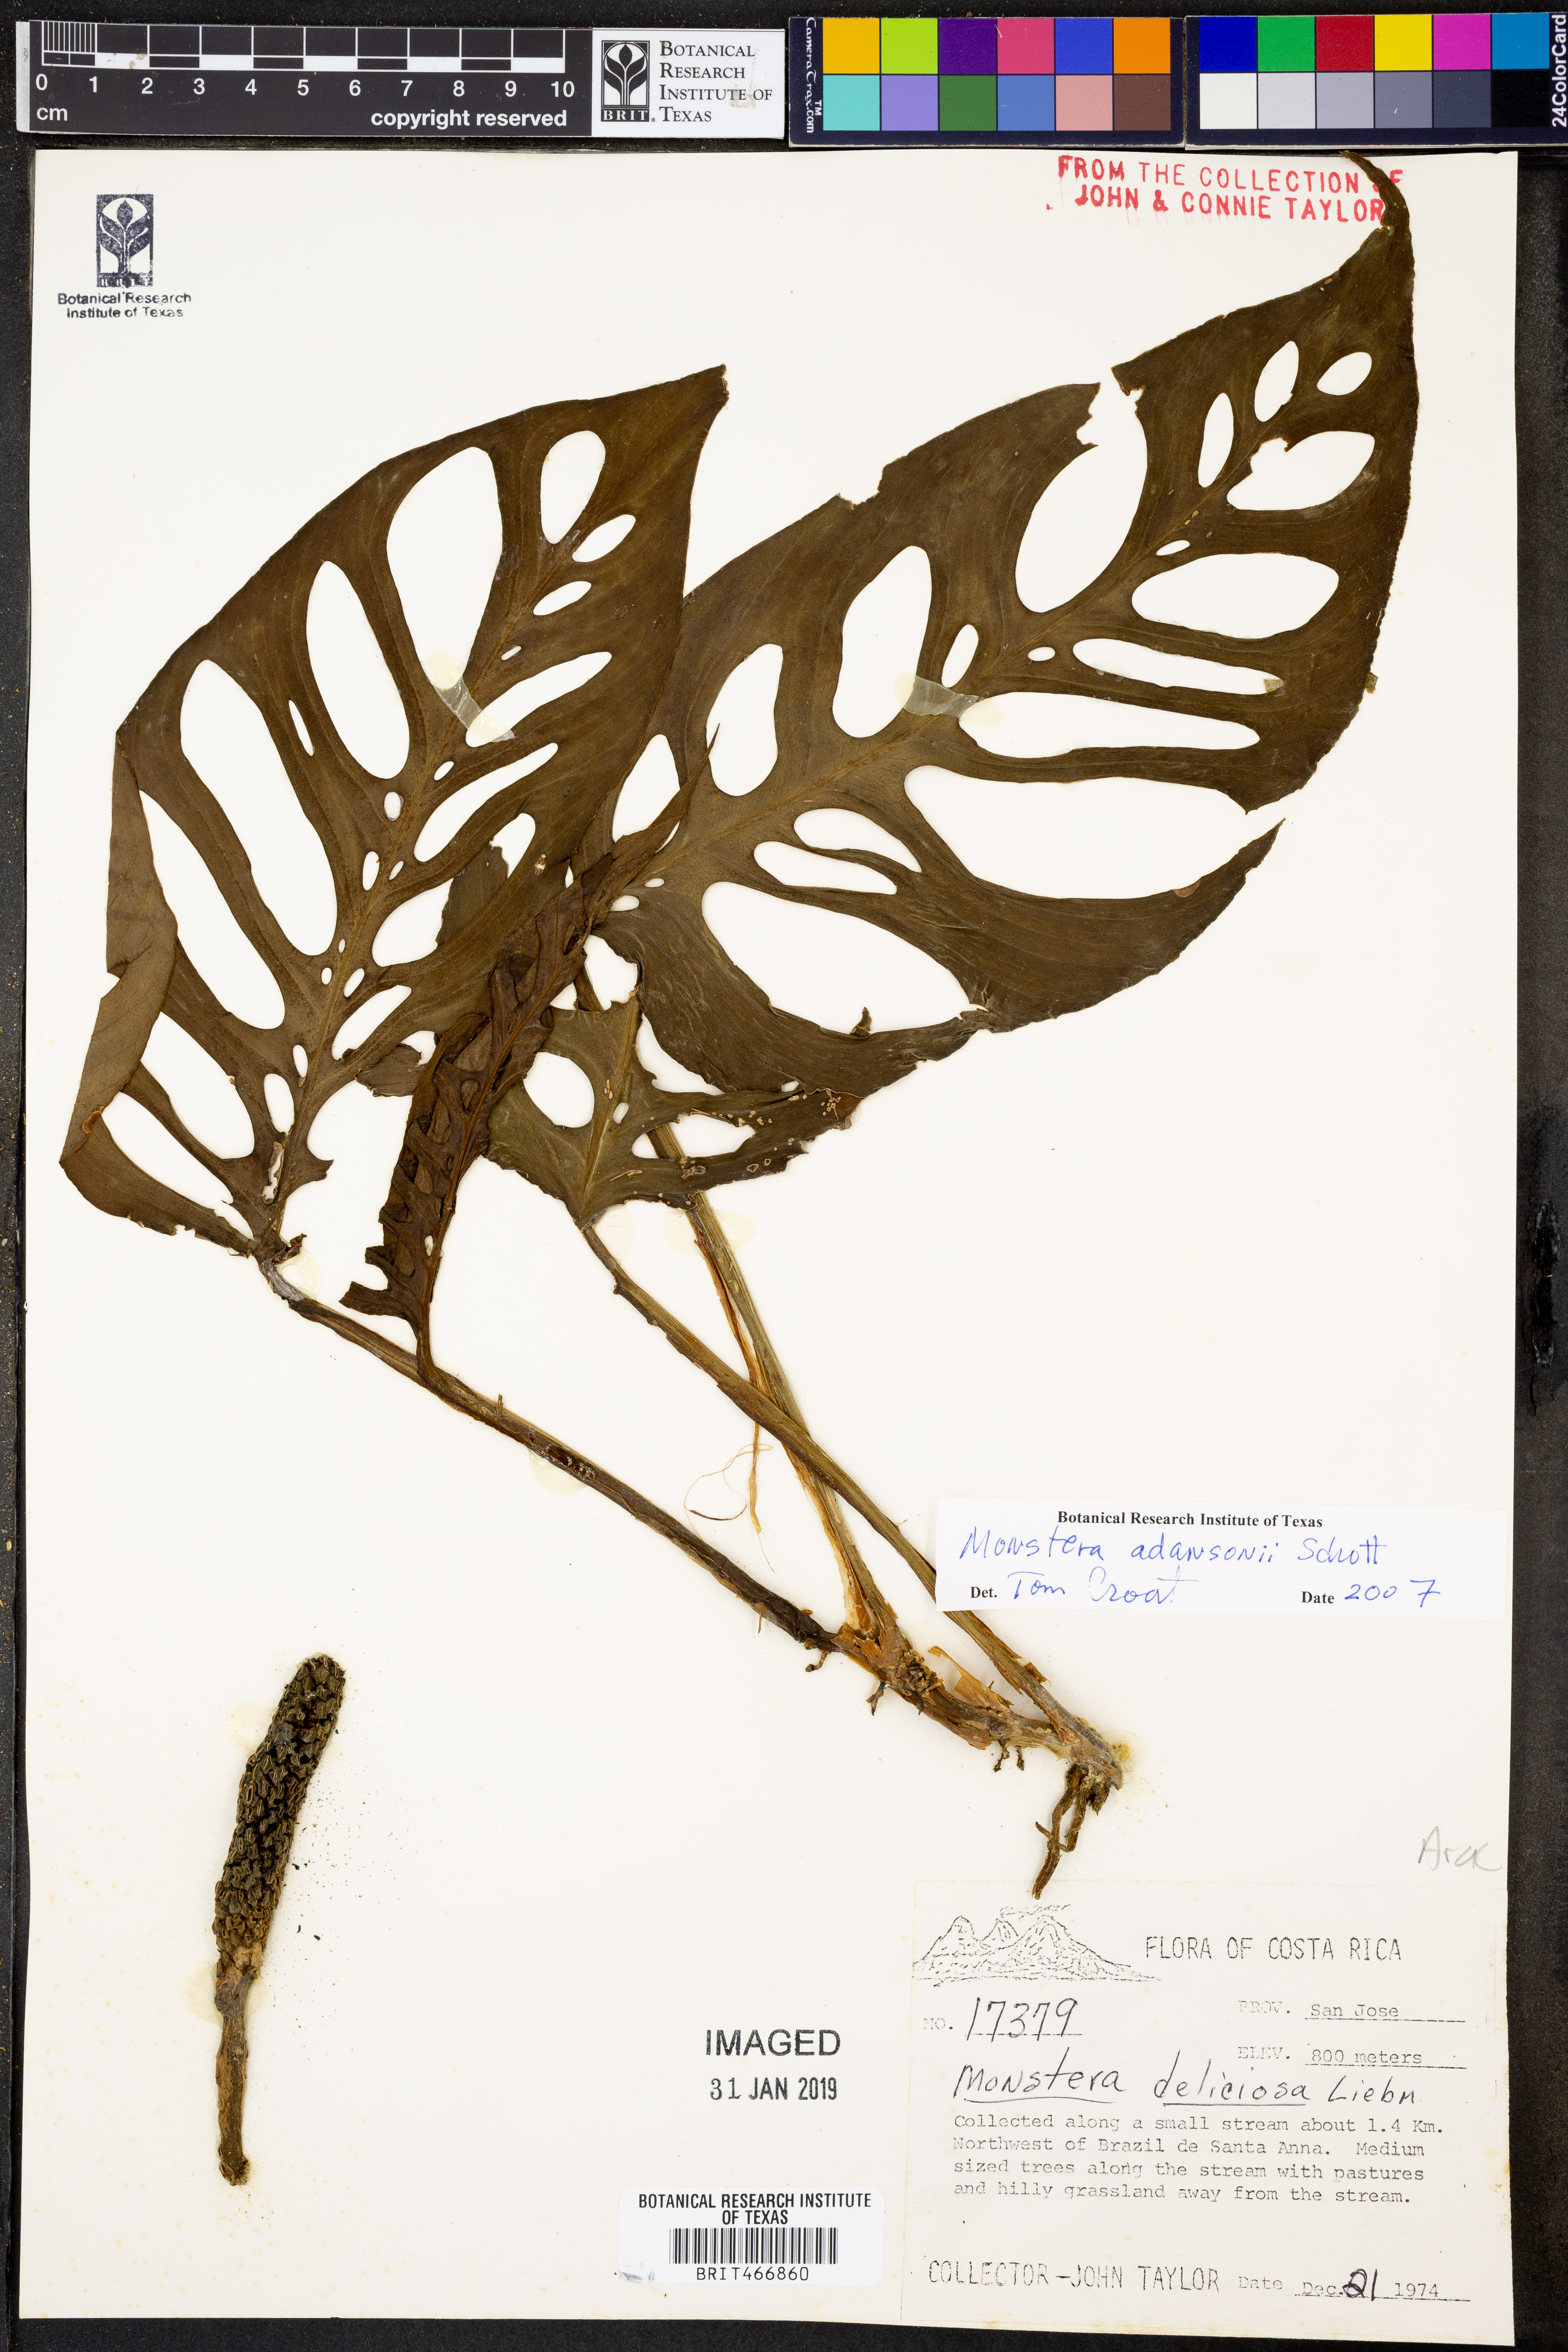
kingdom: Plantae
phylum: Tracheophyta
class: Liliopsida
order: Alismatales
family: Araceae
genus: Monstera
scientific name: Monstera adansonii
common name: Tarovine
